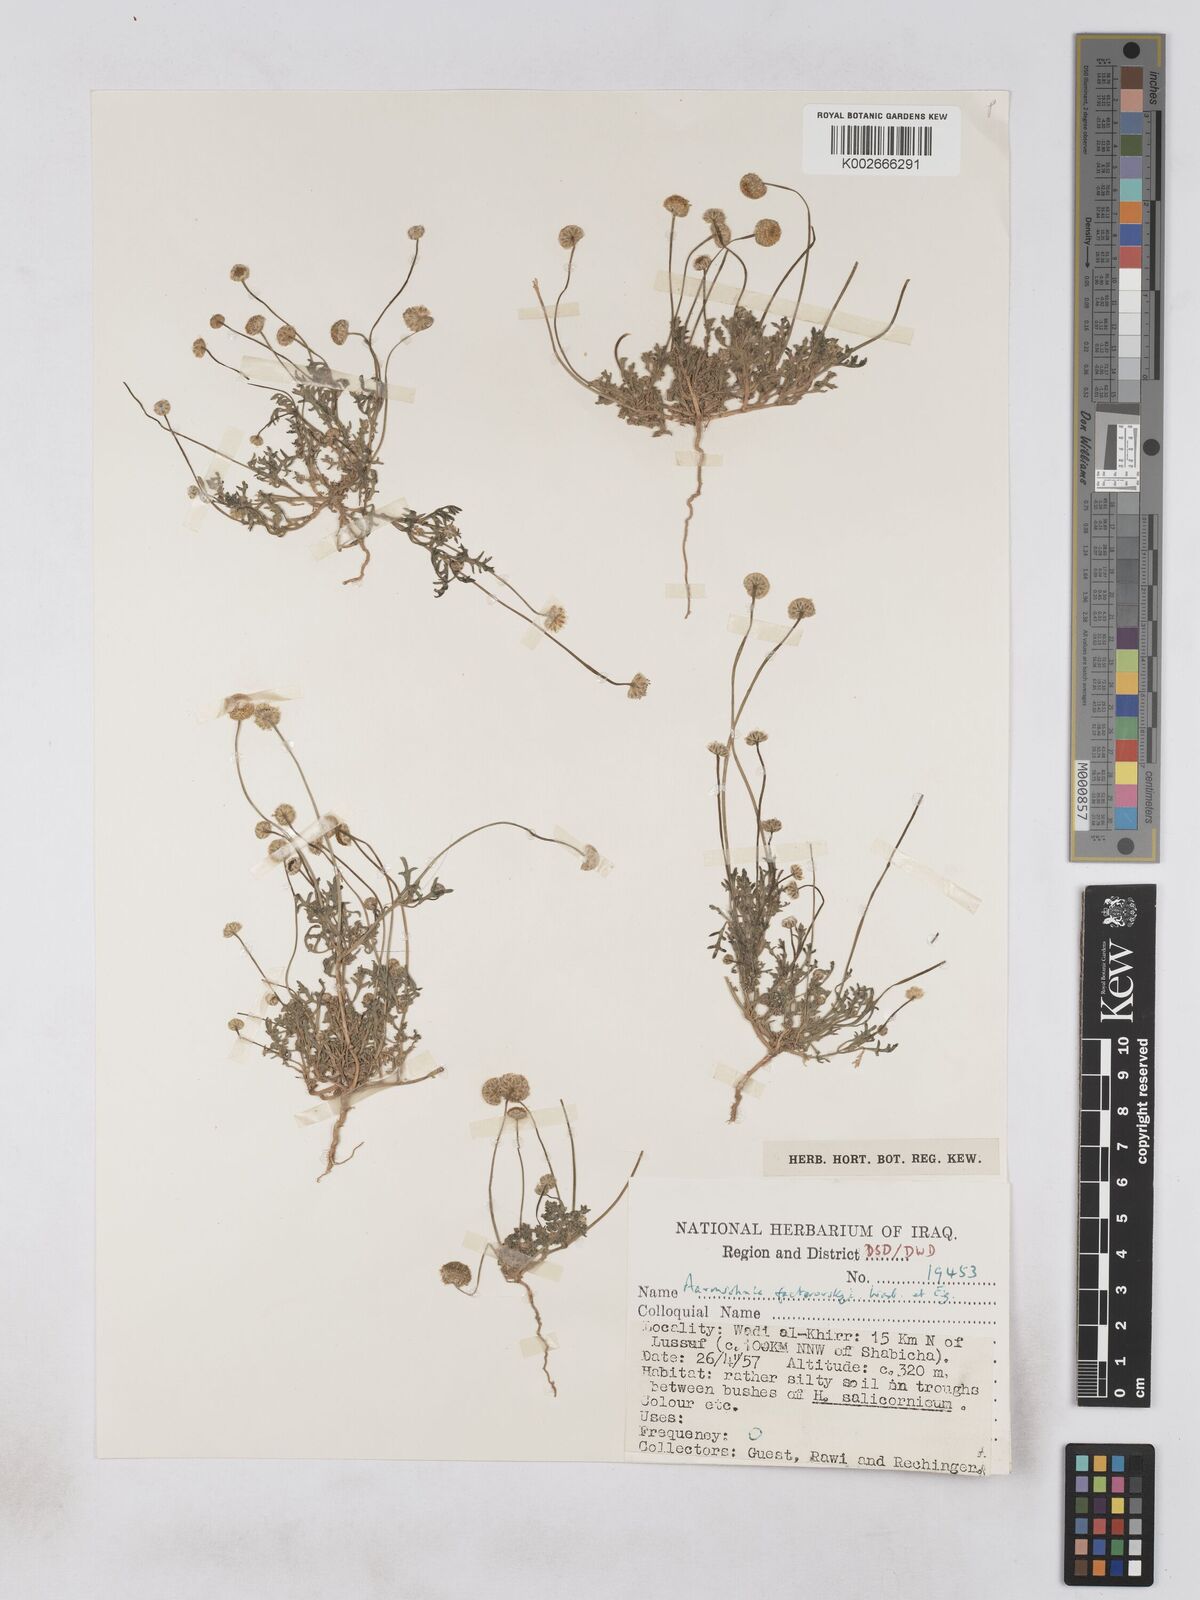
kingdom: Plantae
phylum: Tracheophyta
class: Magnoliopsida
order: Asterales
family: Asteraceae
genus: Otoglyphis
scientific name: Otoglyphis factorovskyi
